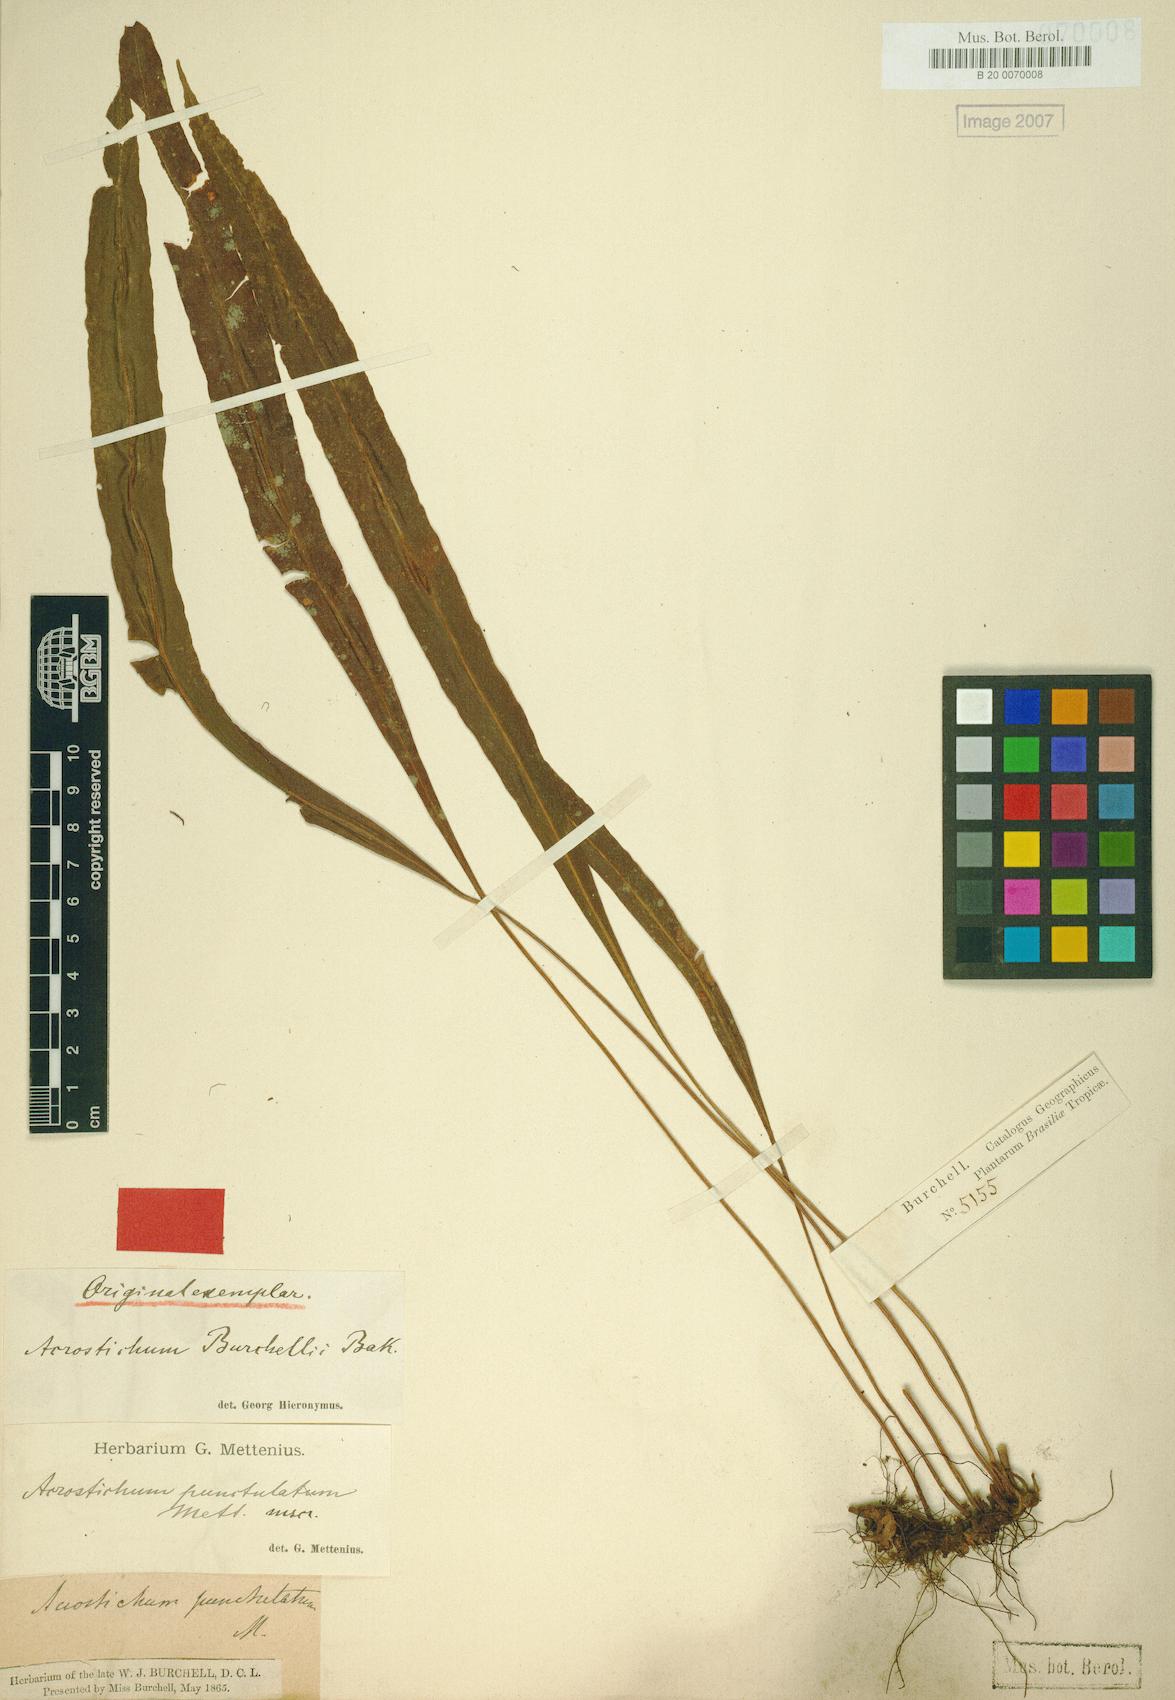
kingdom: Plantae
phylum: Tracheophyta
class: Polypodiopsida
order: Polypodiales
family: Dryopteridaceae
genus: Elaphoglossum
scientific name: Elaphoglossum burchellii
